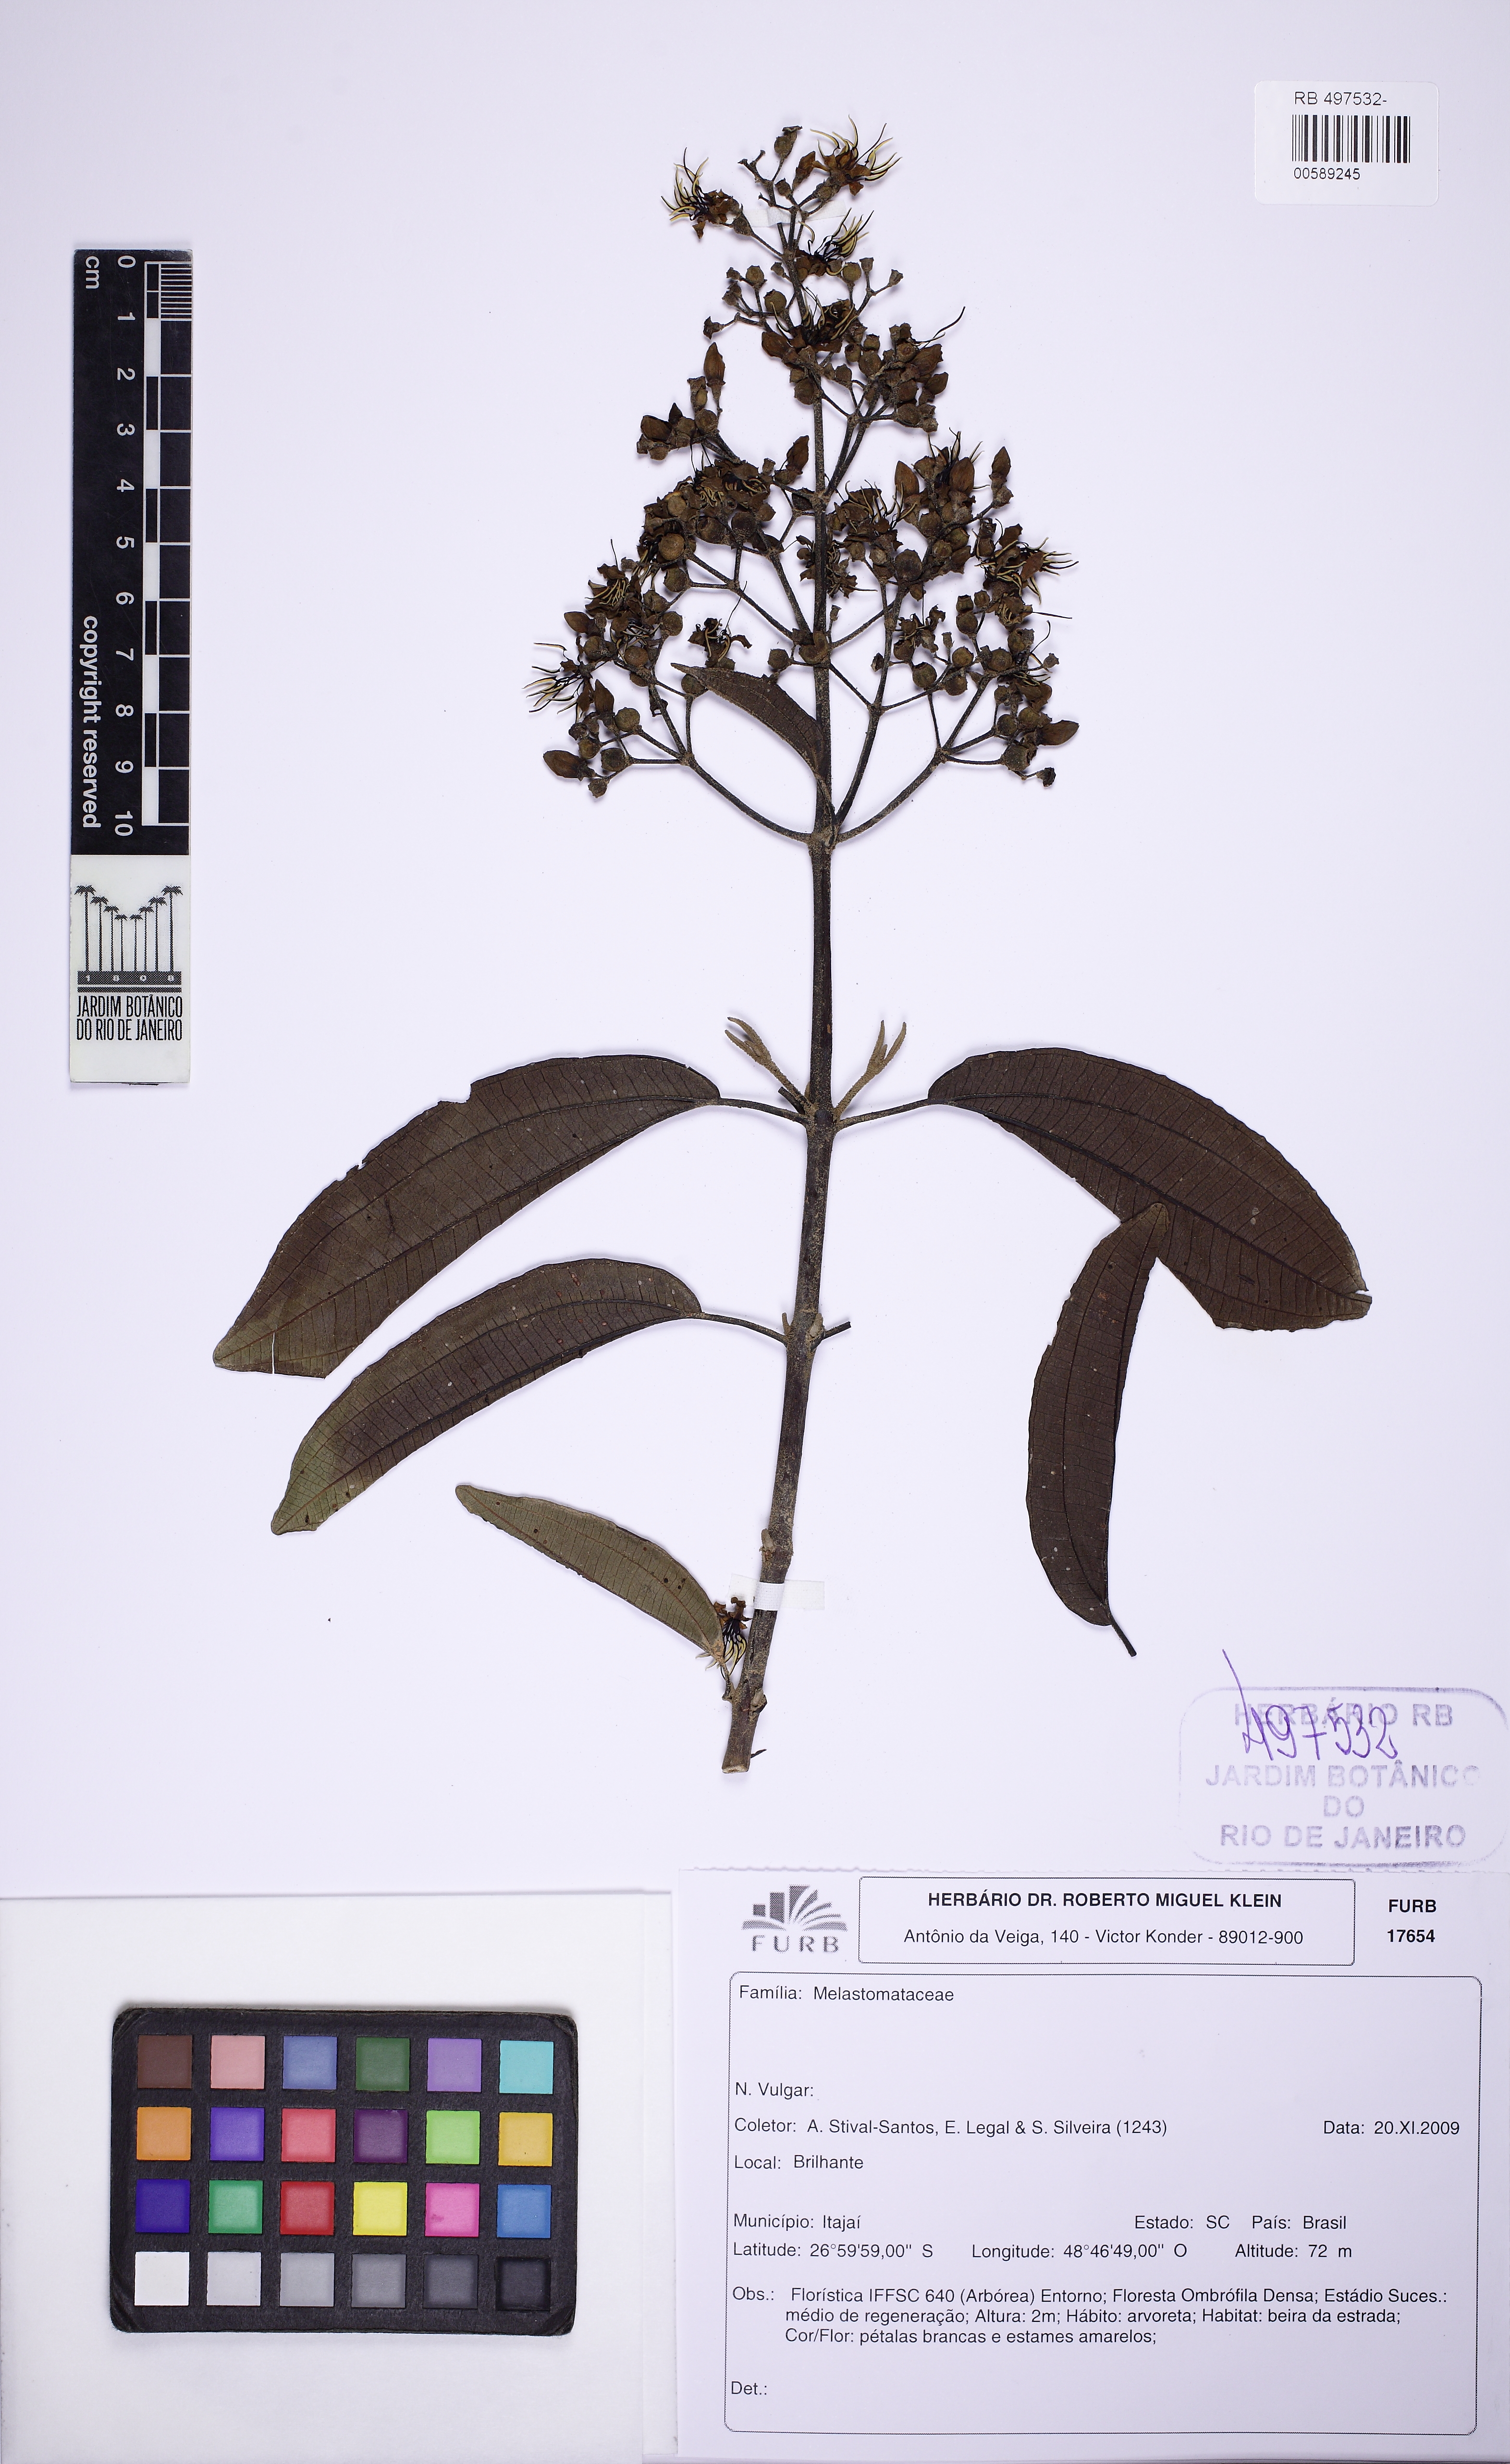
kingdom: Plantae
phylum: Tracheophyta
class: Magnoliopsida
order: Myrtales
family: Melastomataceae
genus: Miconia
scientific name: Miconia staminea
